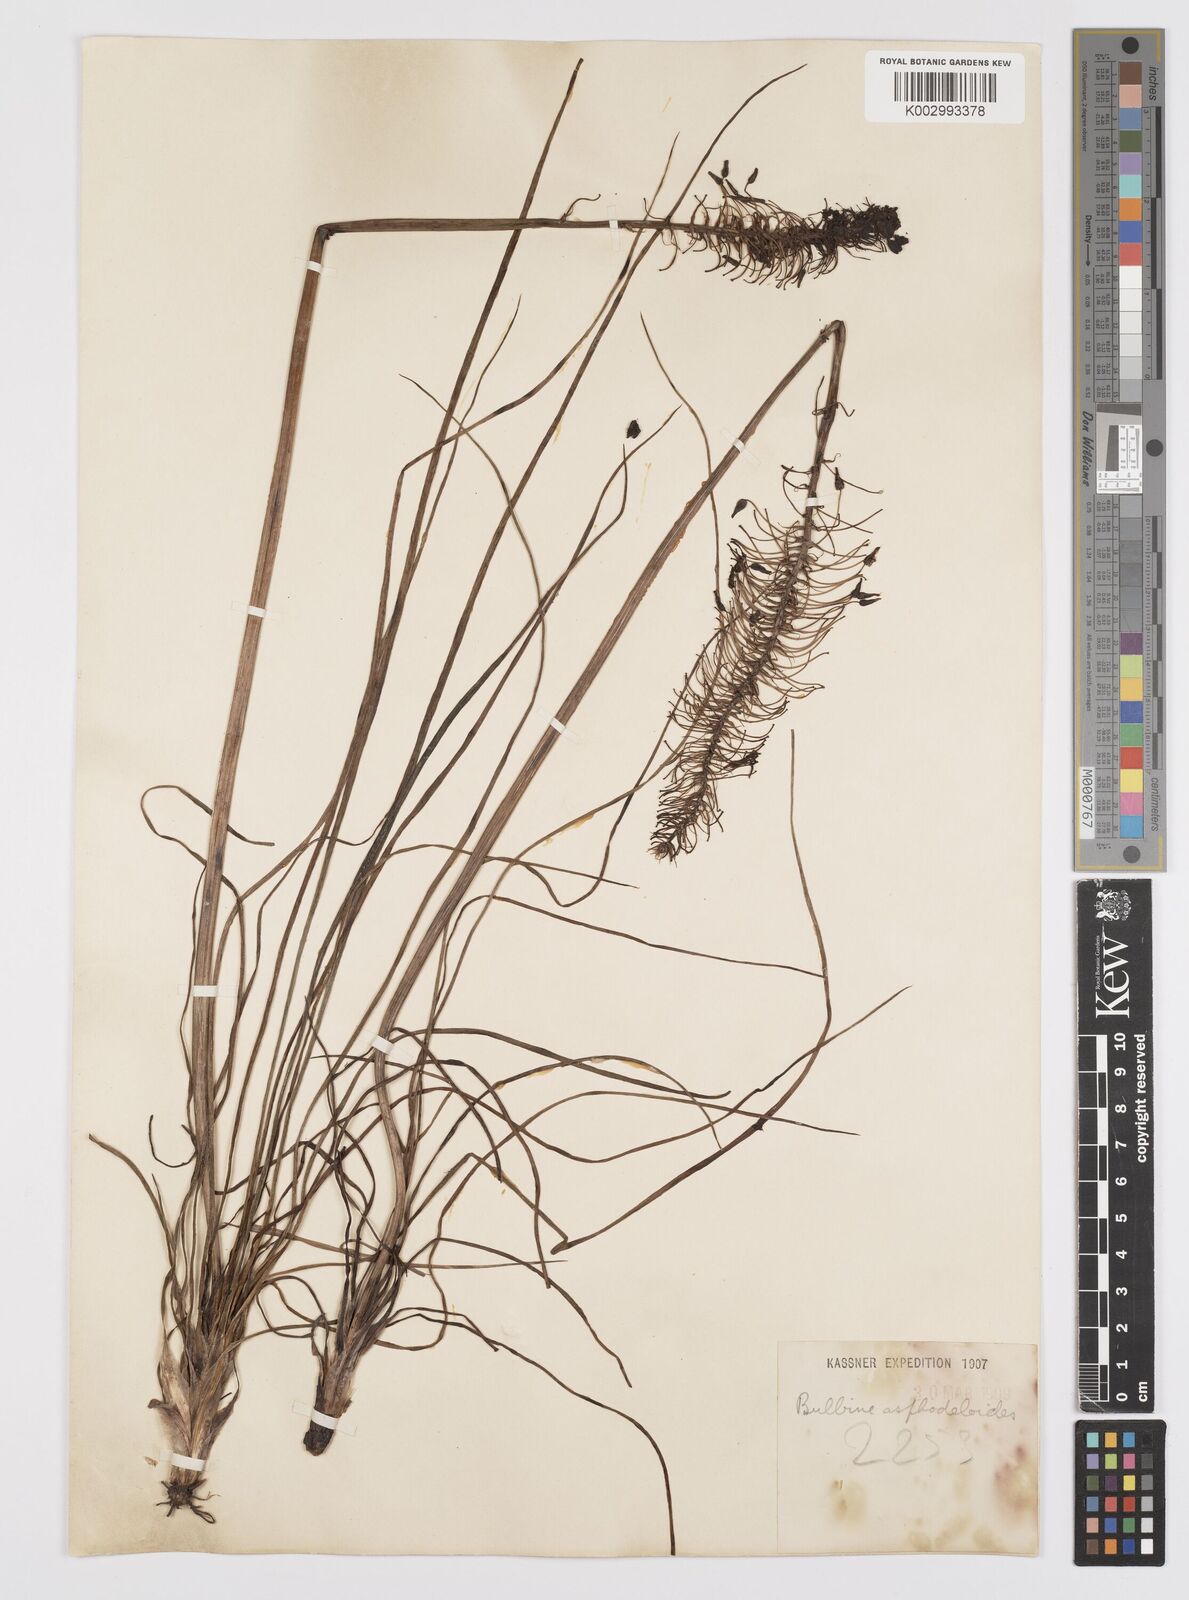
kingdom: Plantae
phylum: Tracheophyta
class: Liliopsida
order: Asparagales
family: Asphodelaceae
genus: Bulbine
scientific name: Bulbine abyssinica
